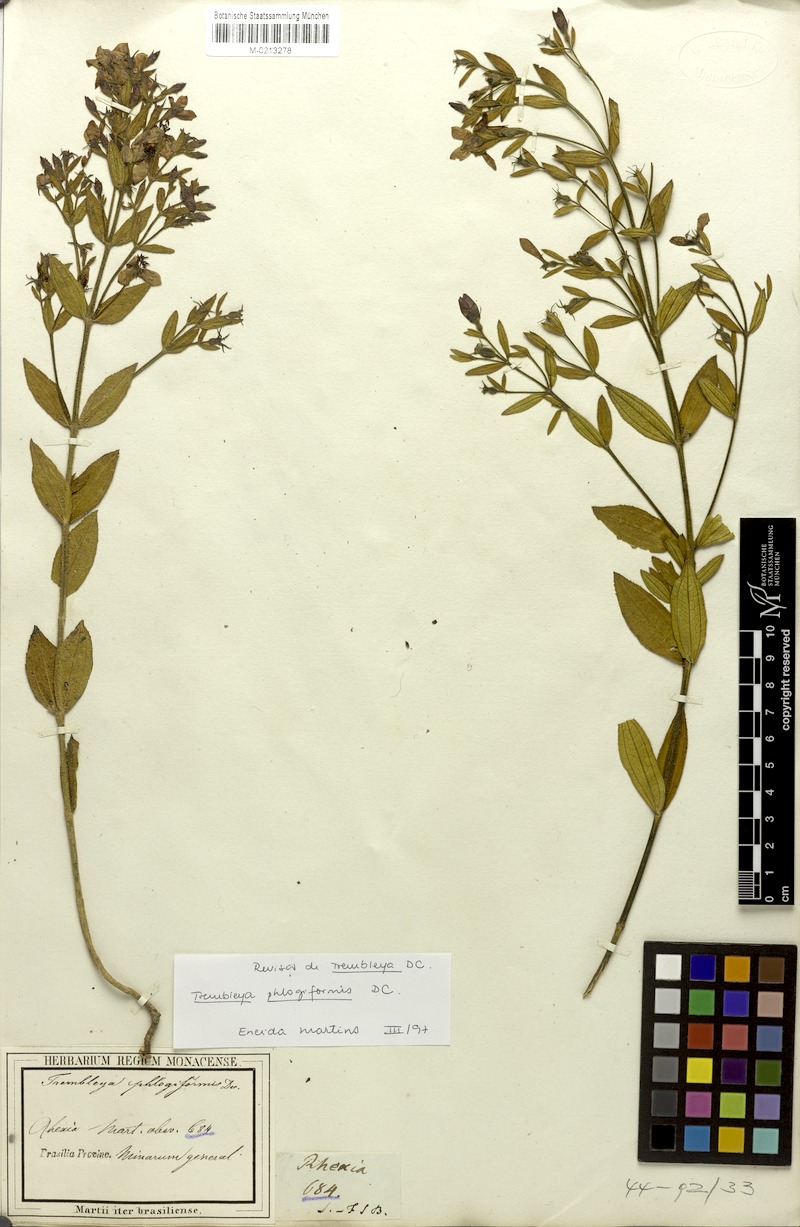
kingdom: Plantae
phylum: Tracheophyta
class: Magnoliopsida
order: Myrtales
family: Melastomataceae
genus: Microlicia
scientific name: Microlicia phlogiformis
